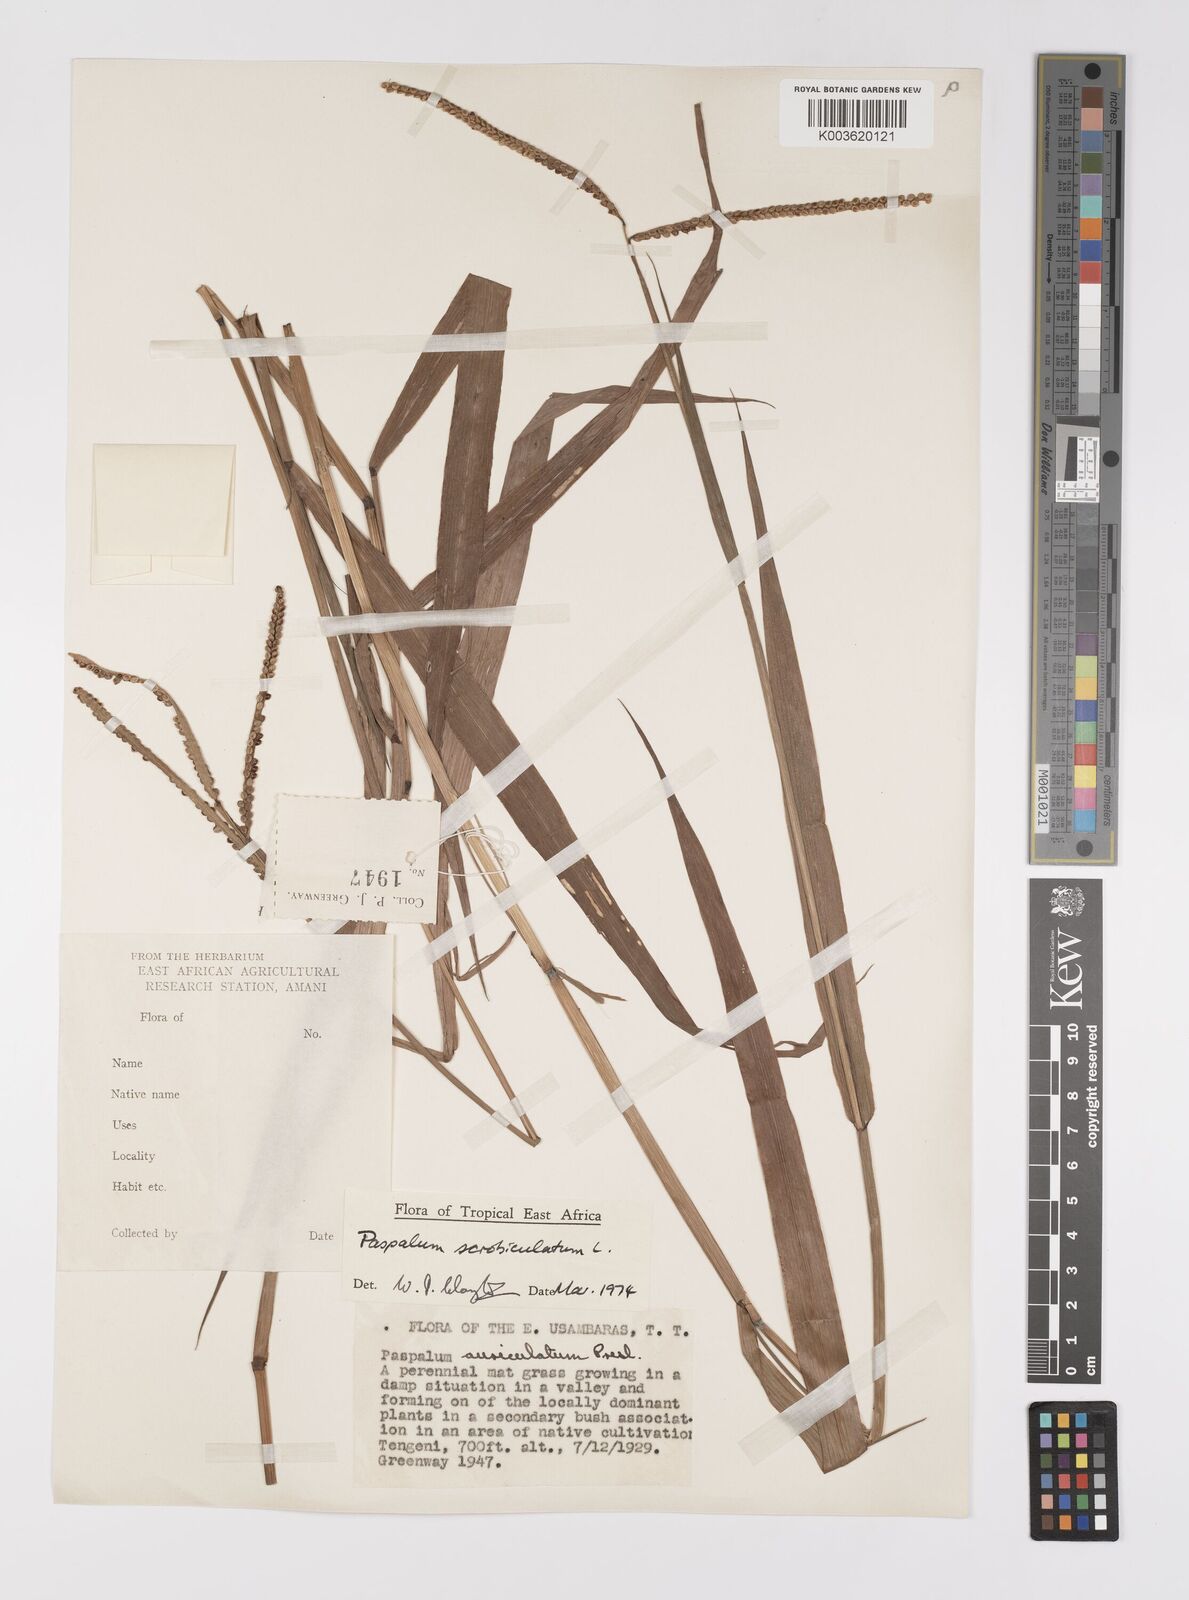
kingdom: Plantae
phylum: Tracheophyta
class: Liliopsida
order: Poales
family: Poaceae
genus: Paspalum
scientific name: Paspalum scrobiculatum
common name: Kodo millet
